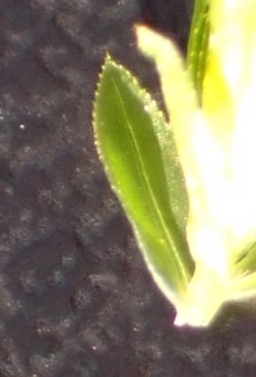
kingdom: Plantae
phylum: Bryophyta
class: Bryopsida
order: Bryales
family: Mniaceae
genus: Mnium
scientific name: Mnium hornum
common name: Brunfiltet stjernemos
